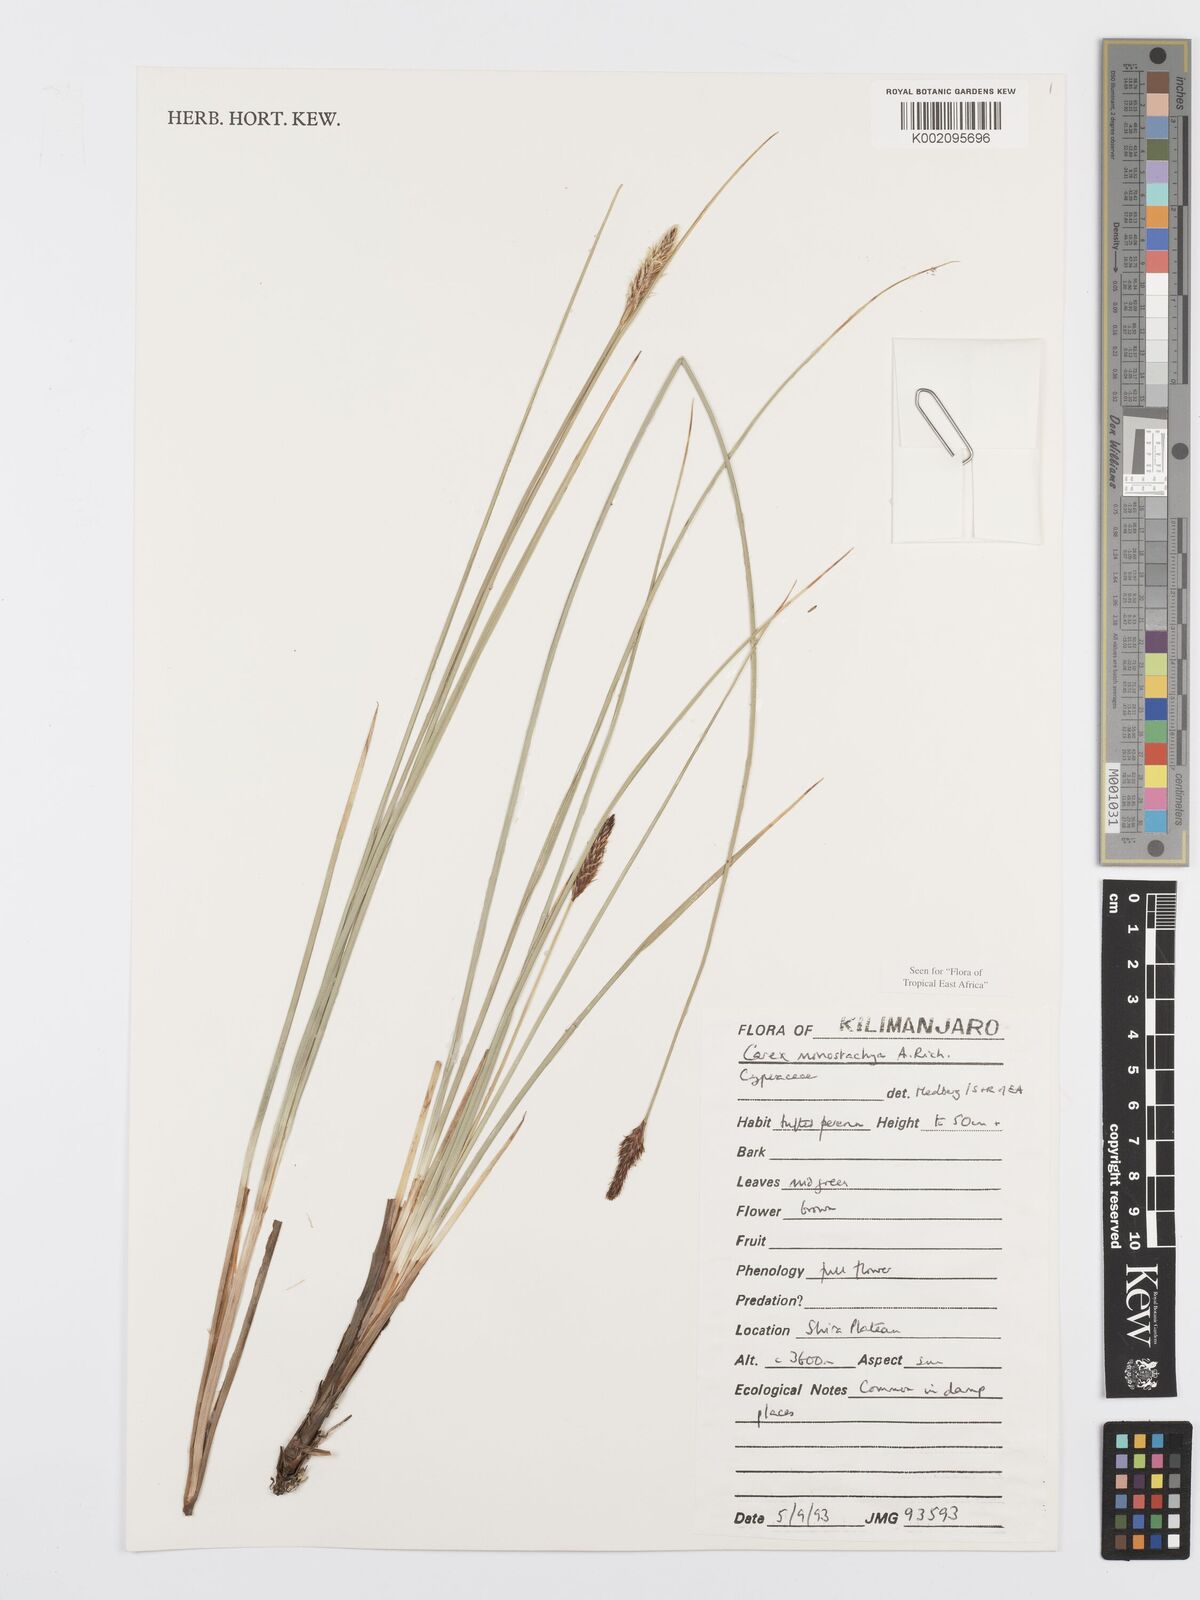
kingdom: Plantae
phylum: Tracheophyta
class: Liliopsida
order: Poales
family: Cyperaceae
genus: Carex
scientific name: Carex monostachya
